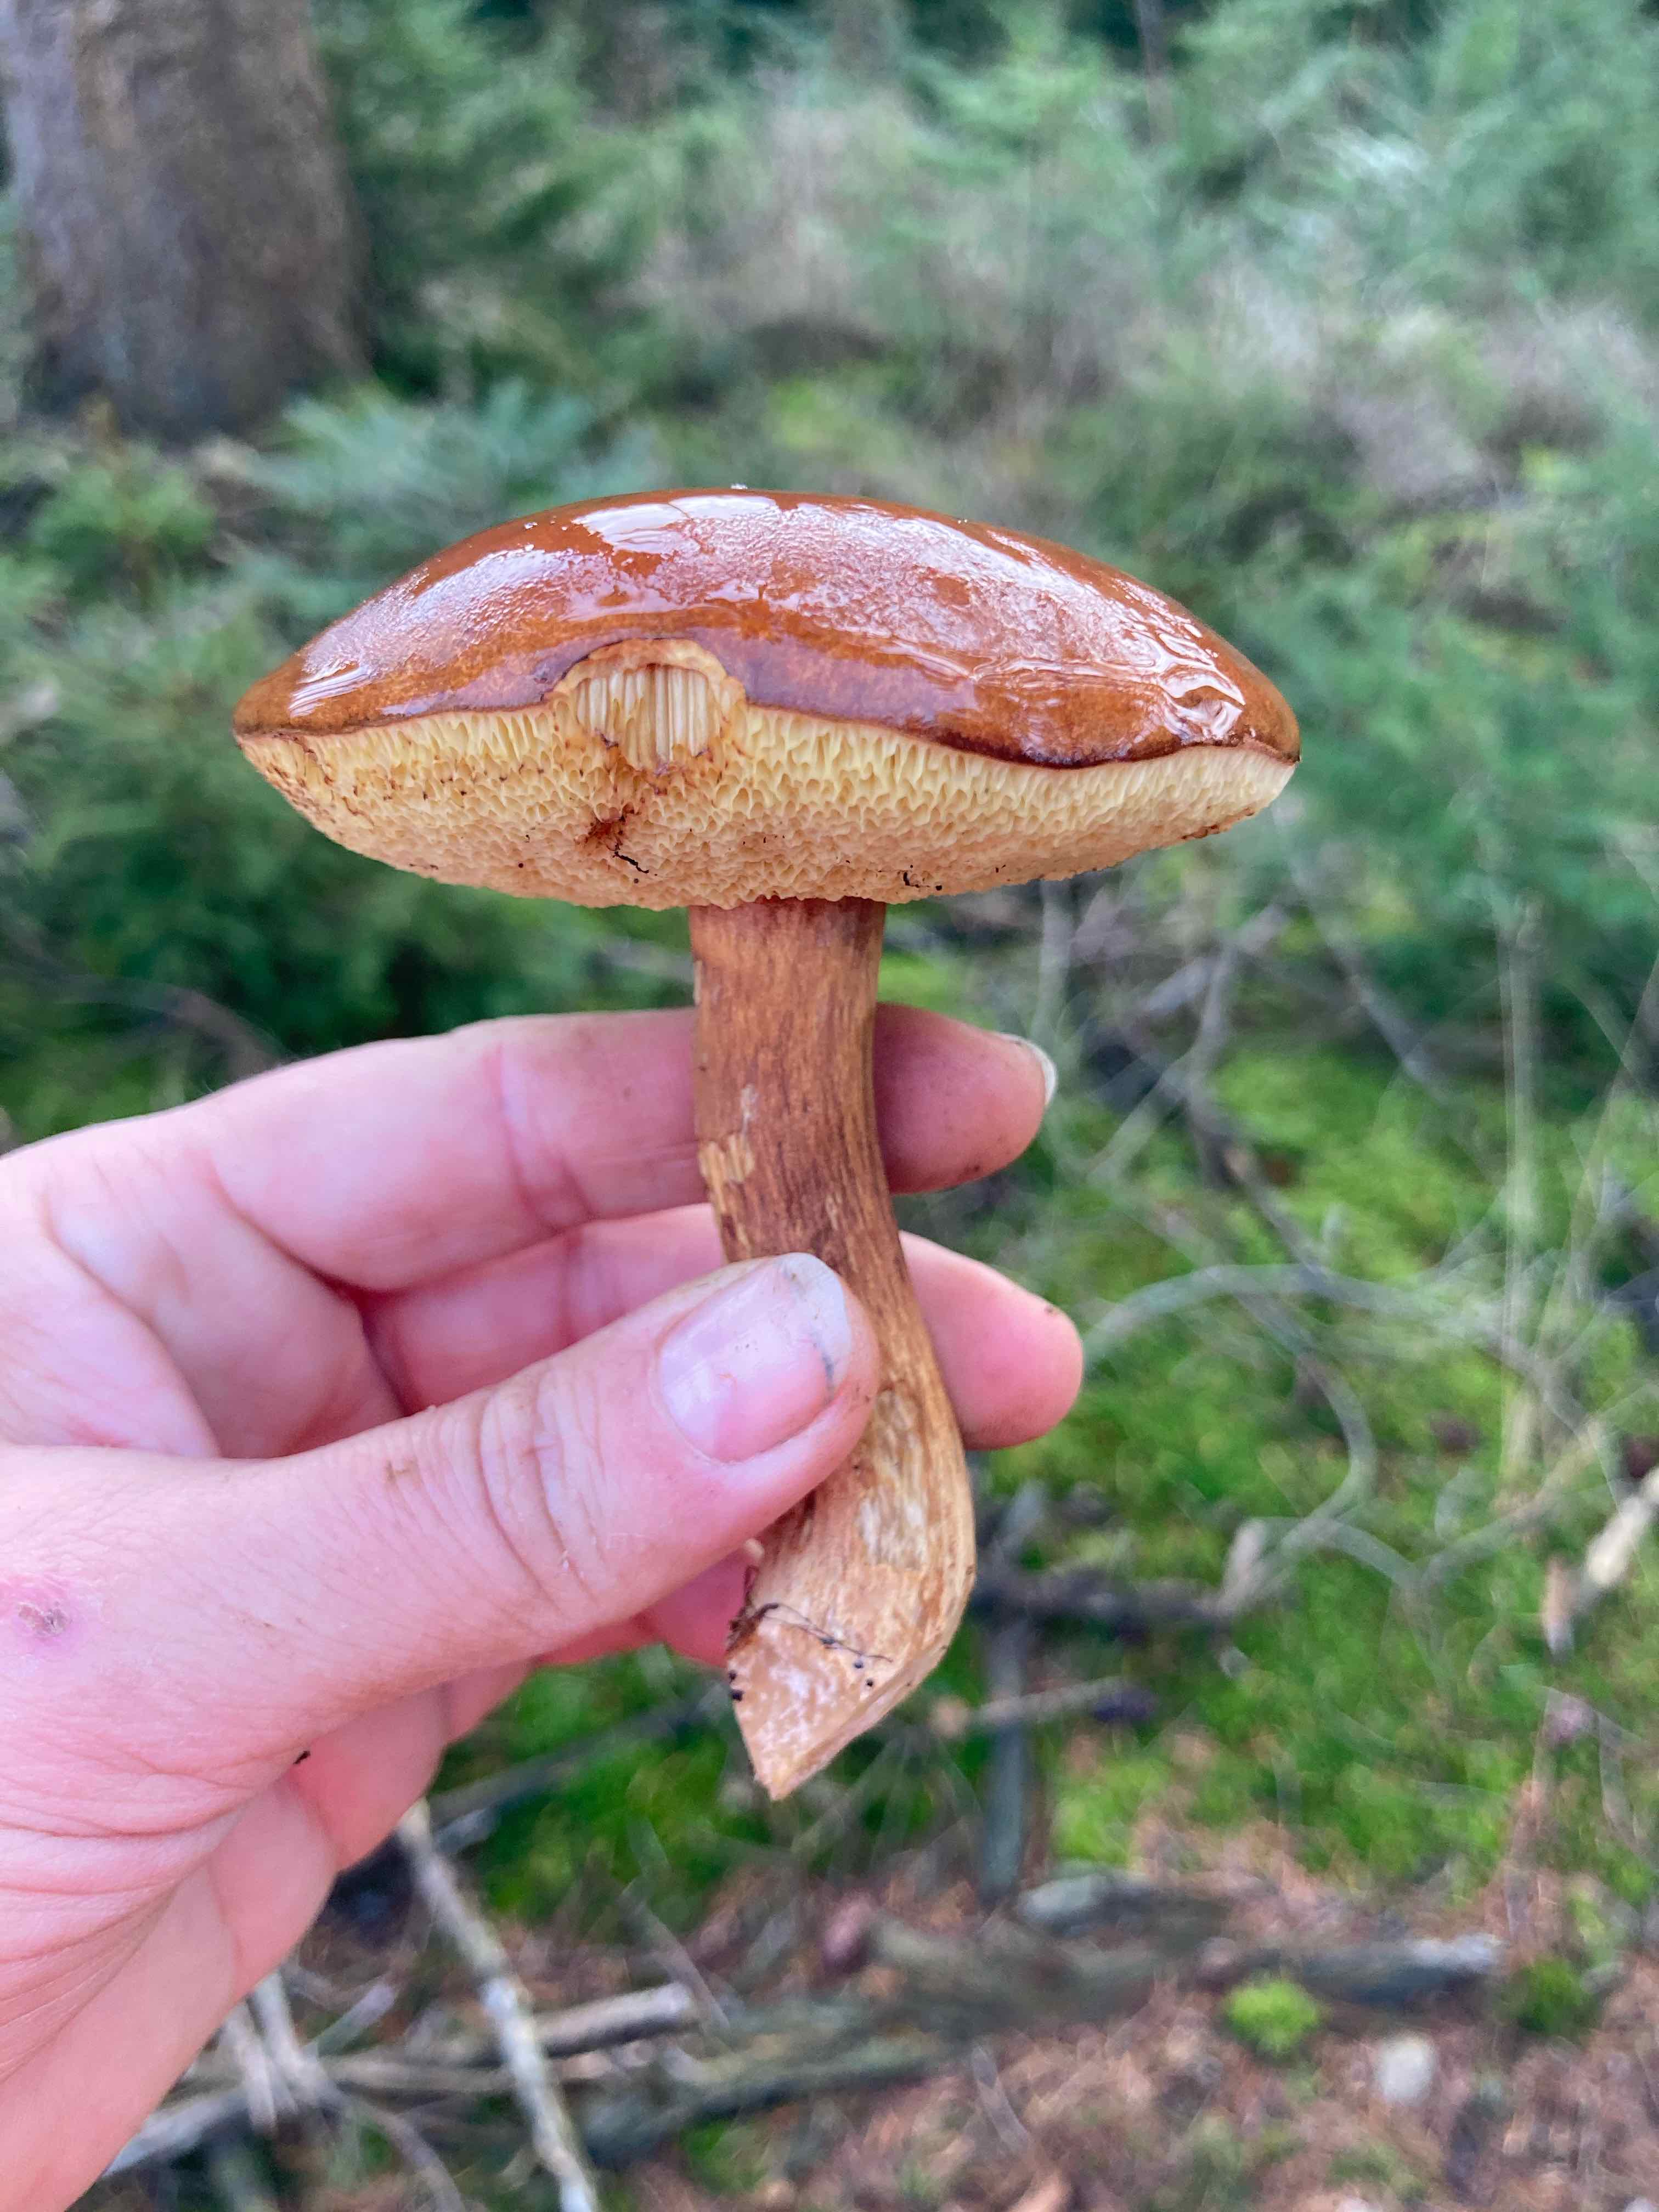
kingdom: Fungi
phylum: Basidiomycota
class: Agaricomycetes
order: Boletales
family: Boletaceae
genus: Imleria
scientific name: Imleria badia
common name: brunstokket rørhat
